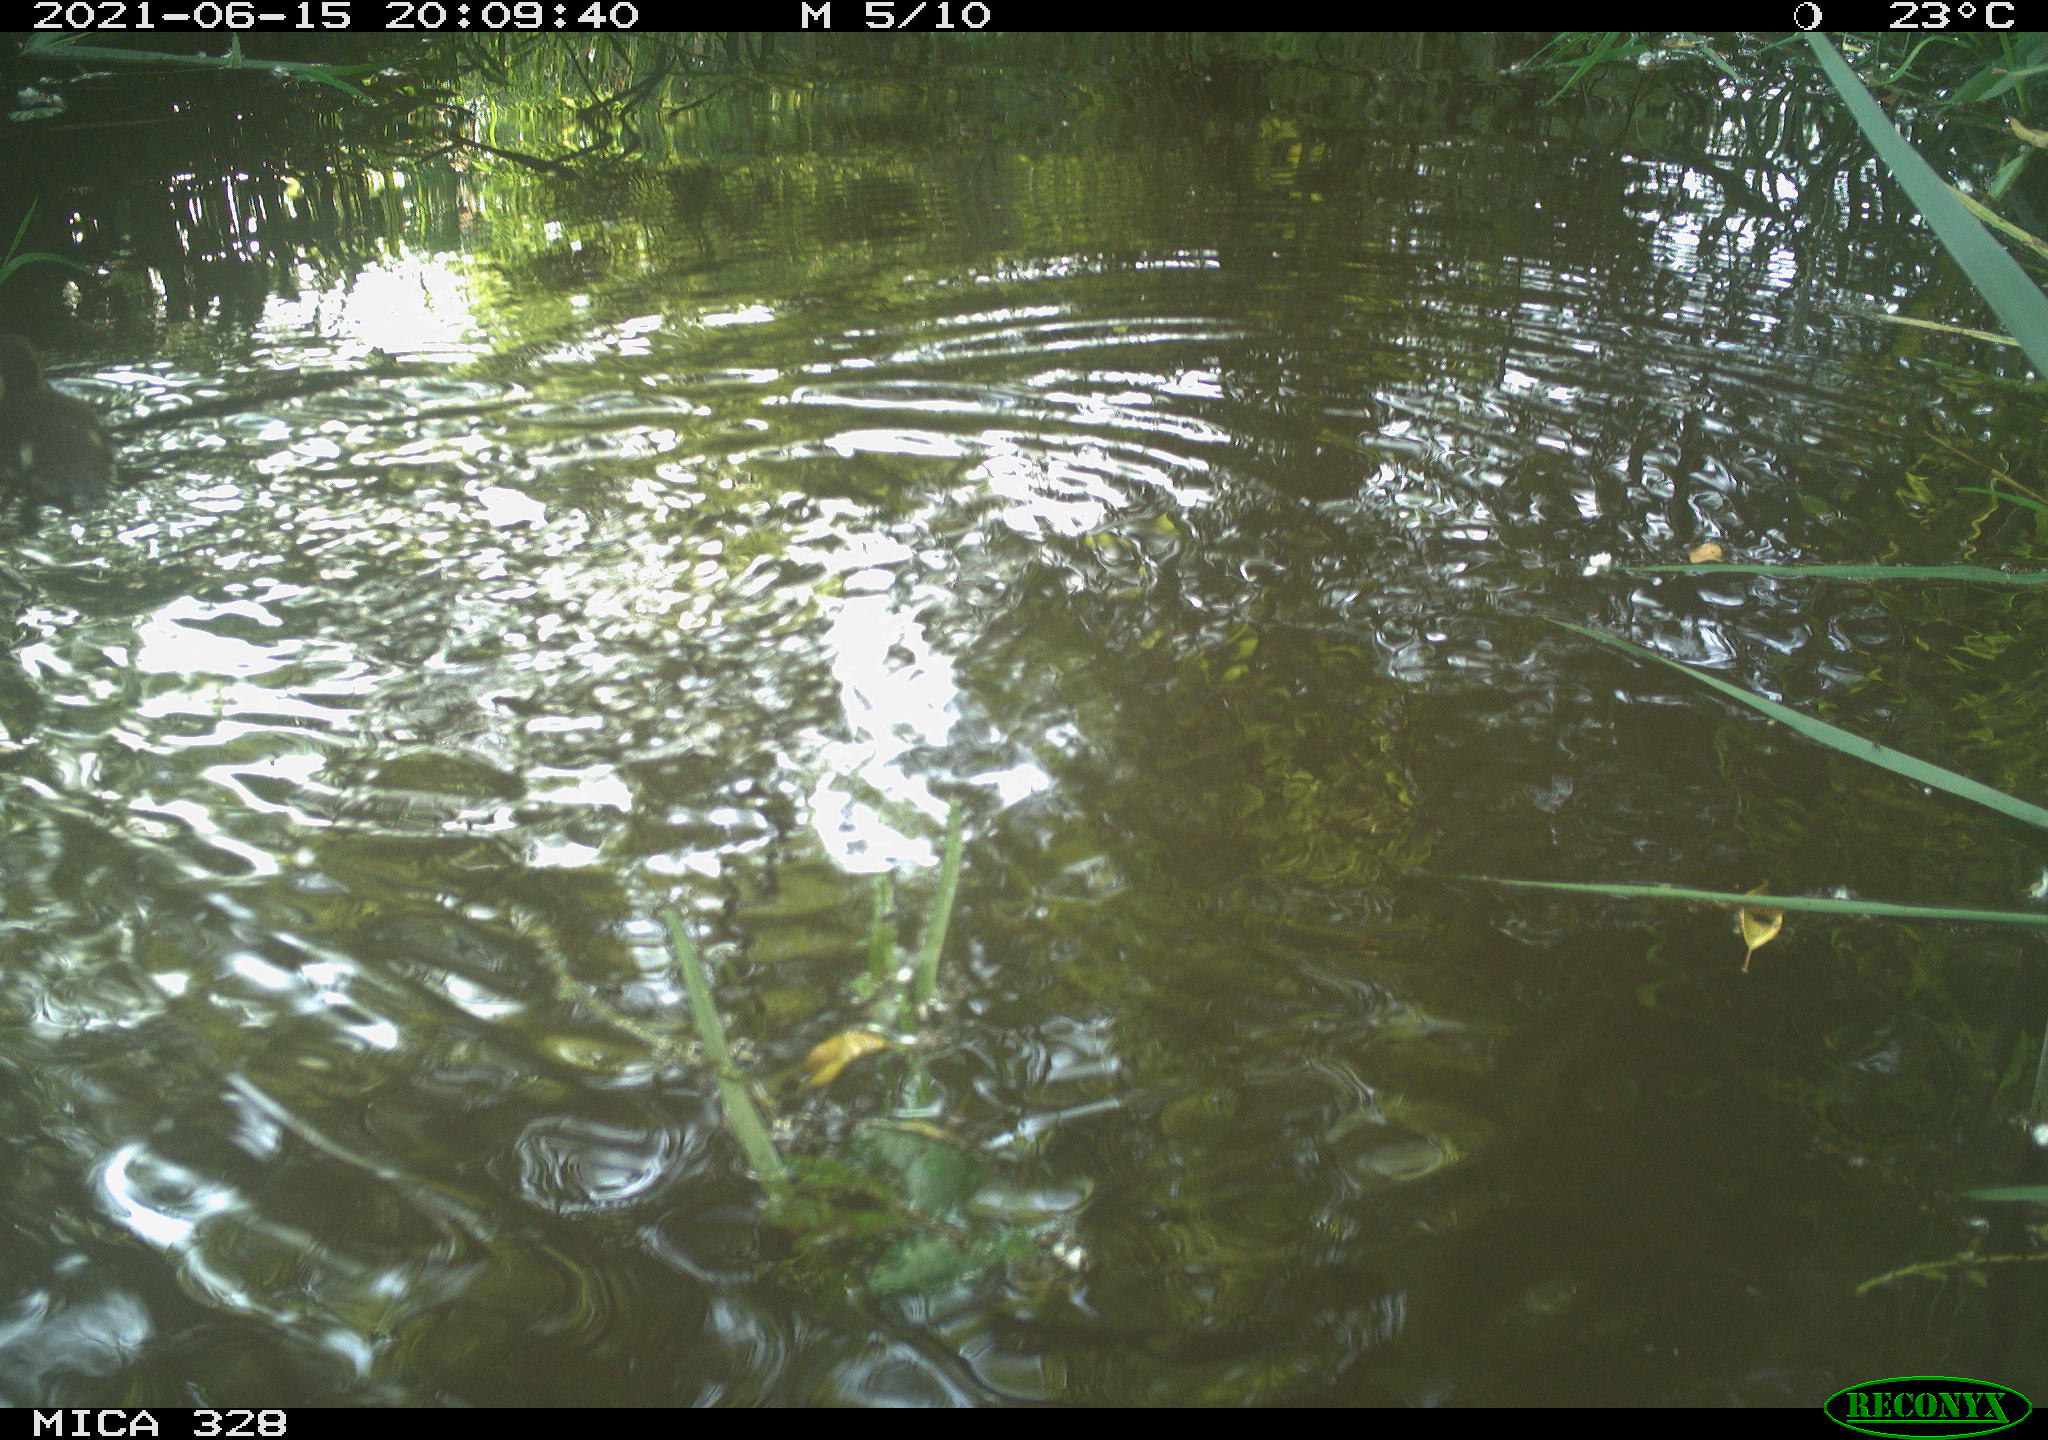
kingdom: Animalia
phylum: Chordata
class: Aves
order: Anseriformes
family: Anatidae
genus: Aix
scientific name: Aix galericulata
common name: Mandarin duck
